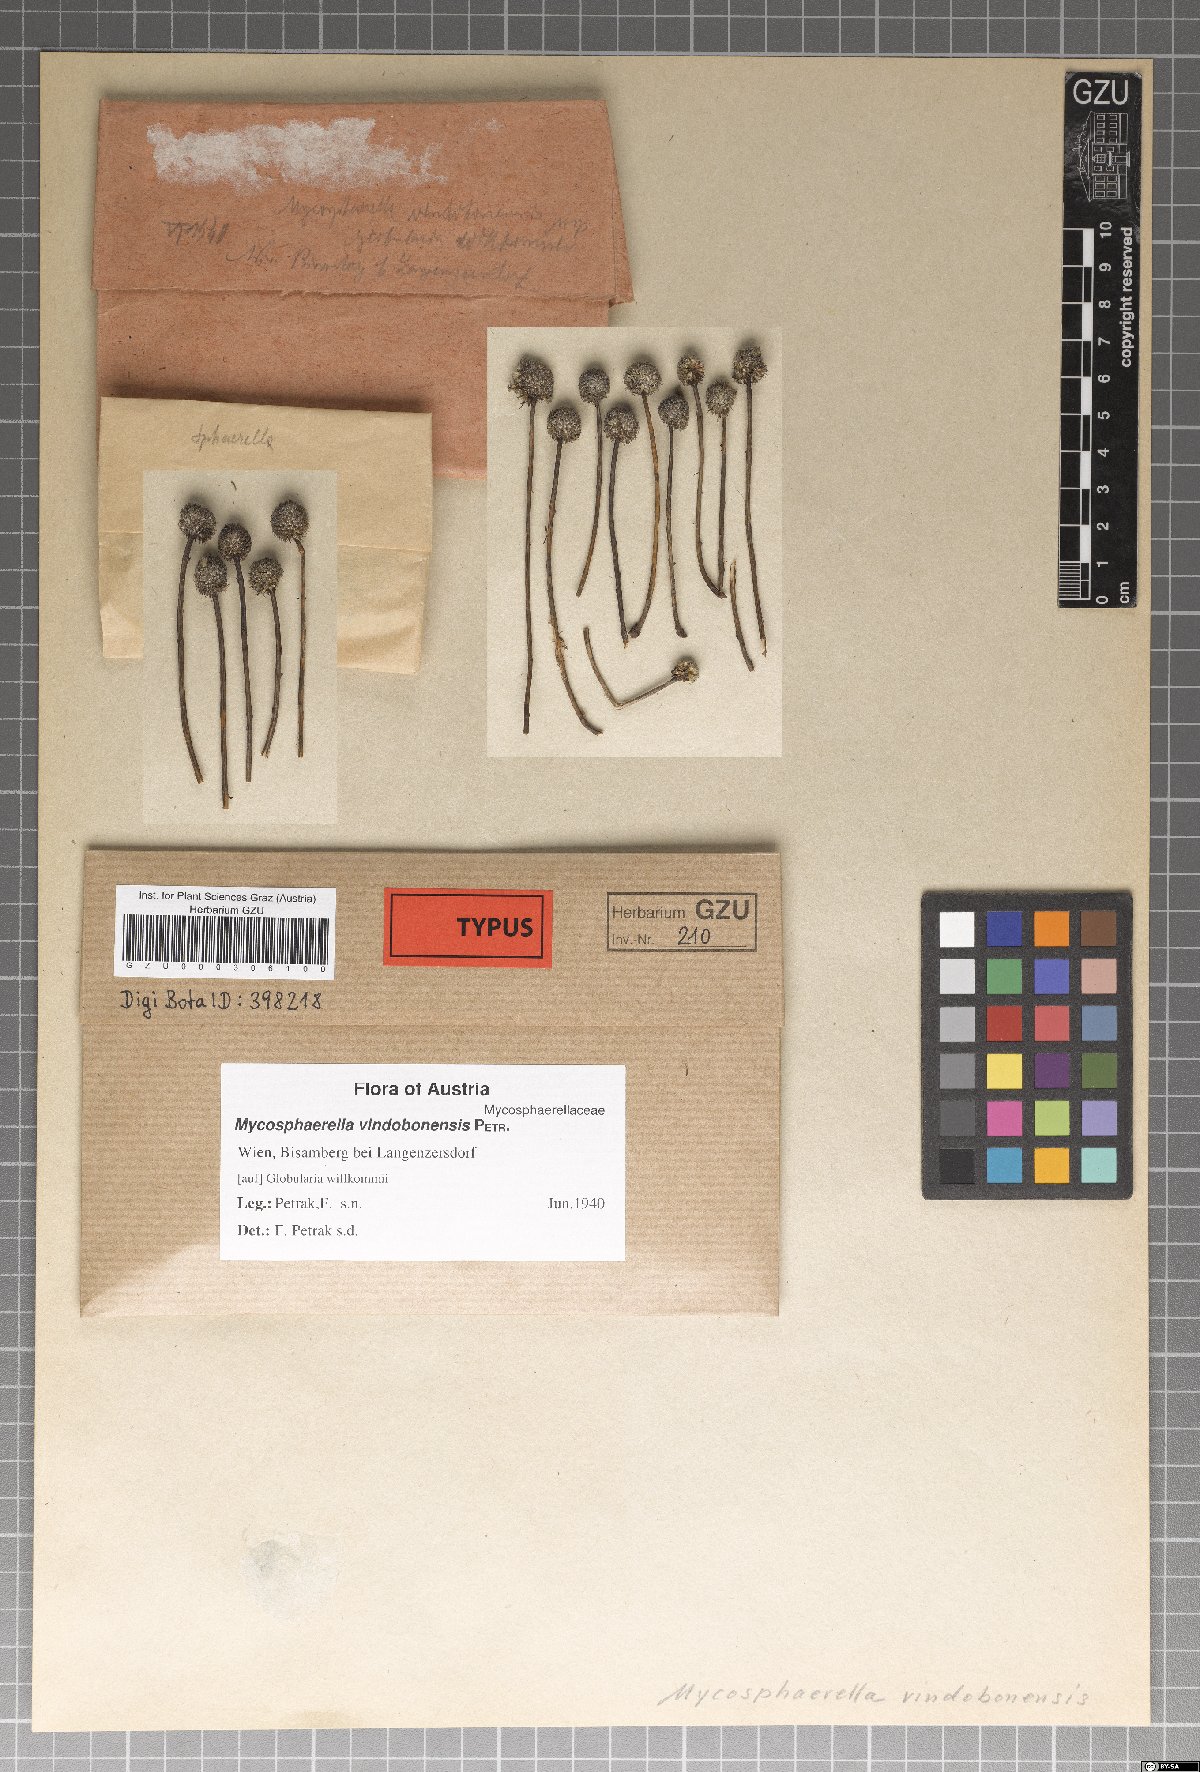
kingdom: Fungi
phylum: Ascomycota
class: Dothideomycetes
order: Mycosphaerellales
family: Mycosphaerellaceae
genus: Mycosphaerella
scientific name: Mycosphaerella vindobonensis
